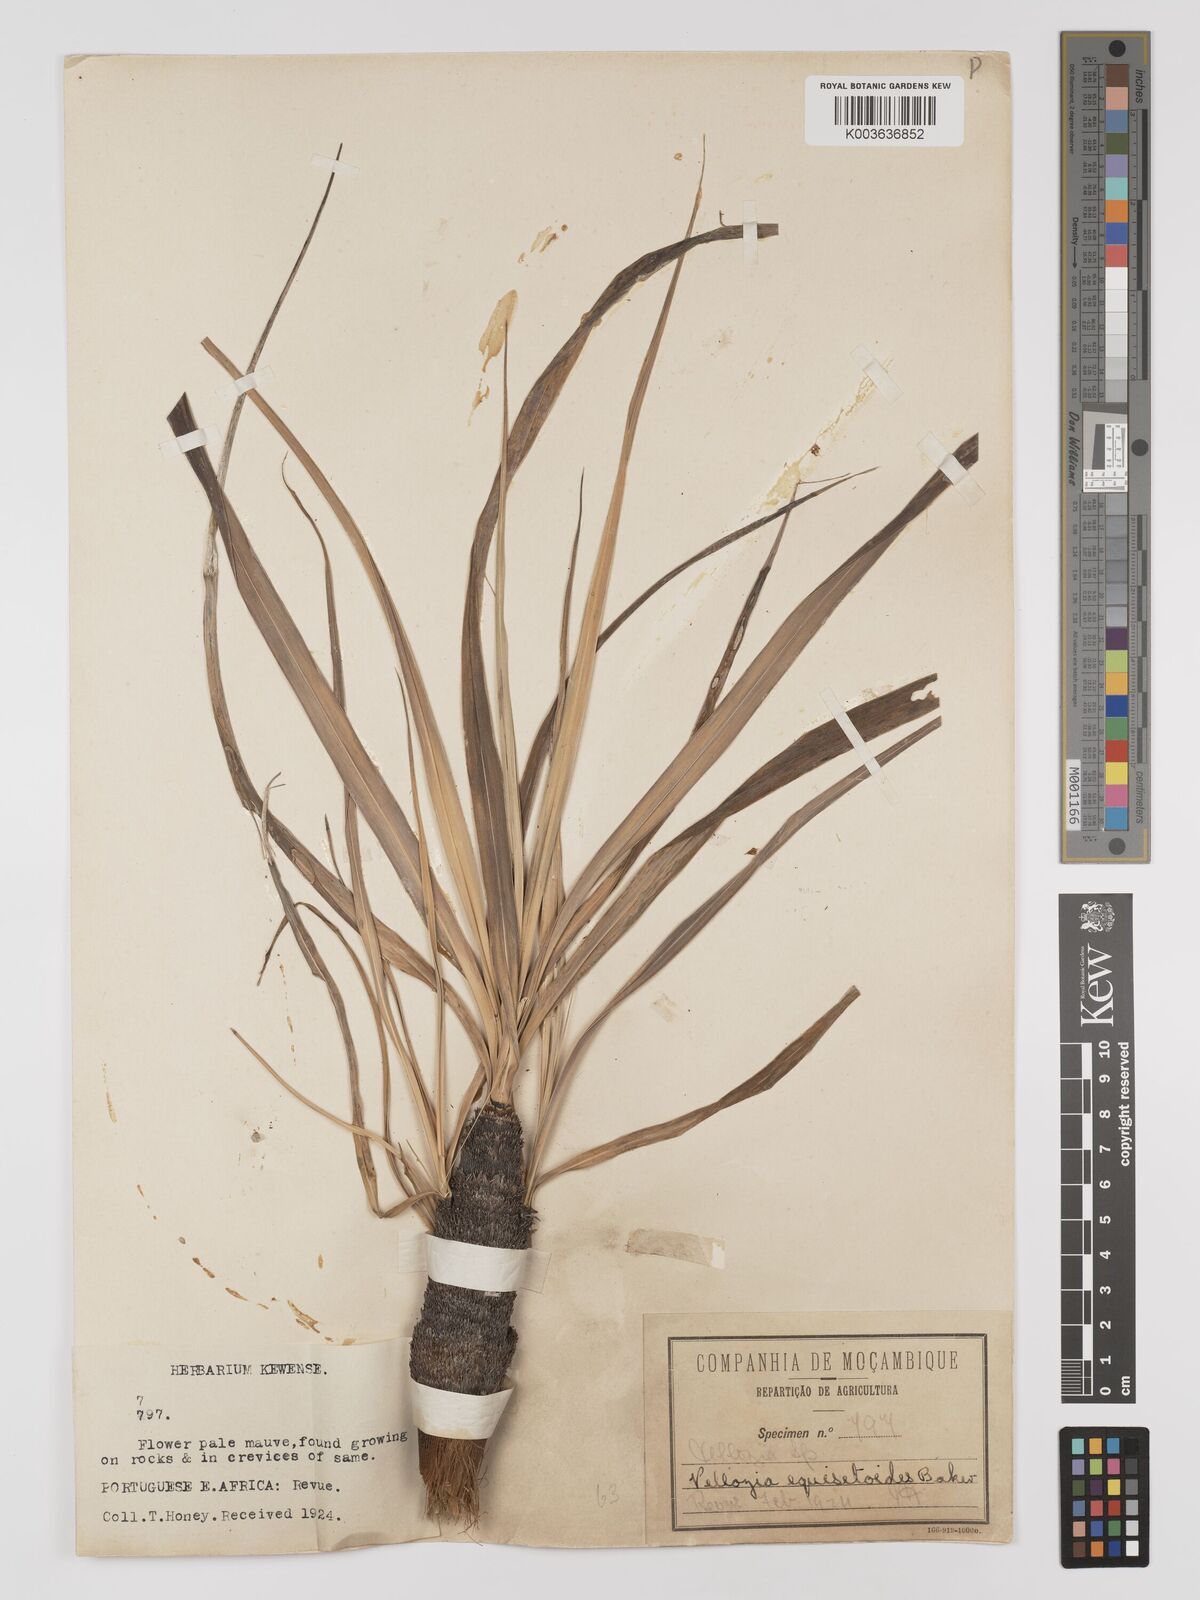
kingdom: Plantae
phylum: Tracheophyta
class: Liliopsida
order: Pandanales
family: Velloziaceae
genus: Xerophyta
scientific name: Xerophyta equisetoides
